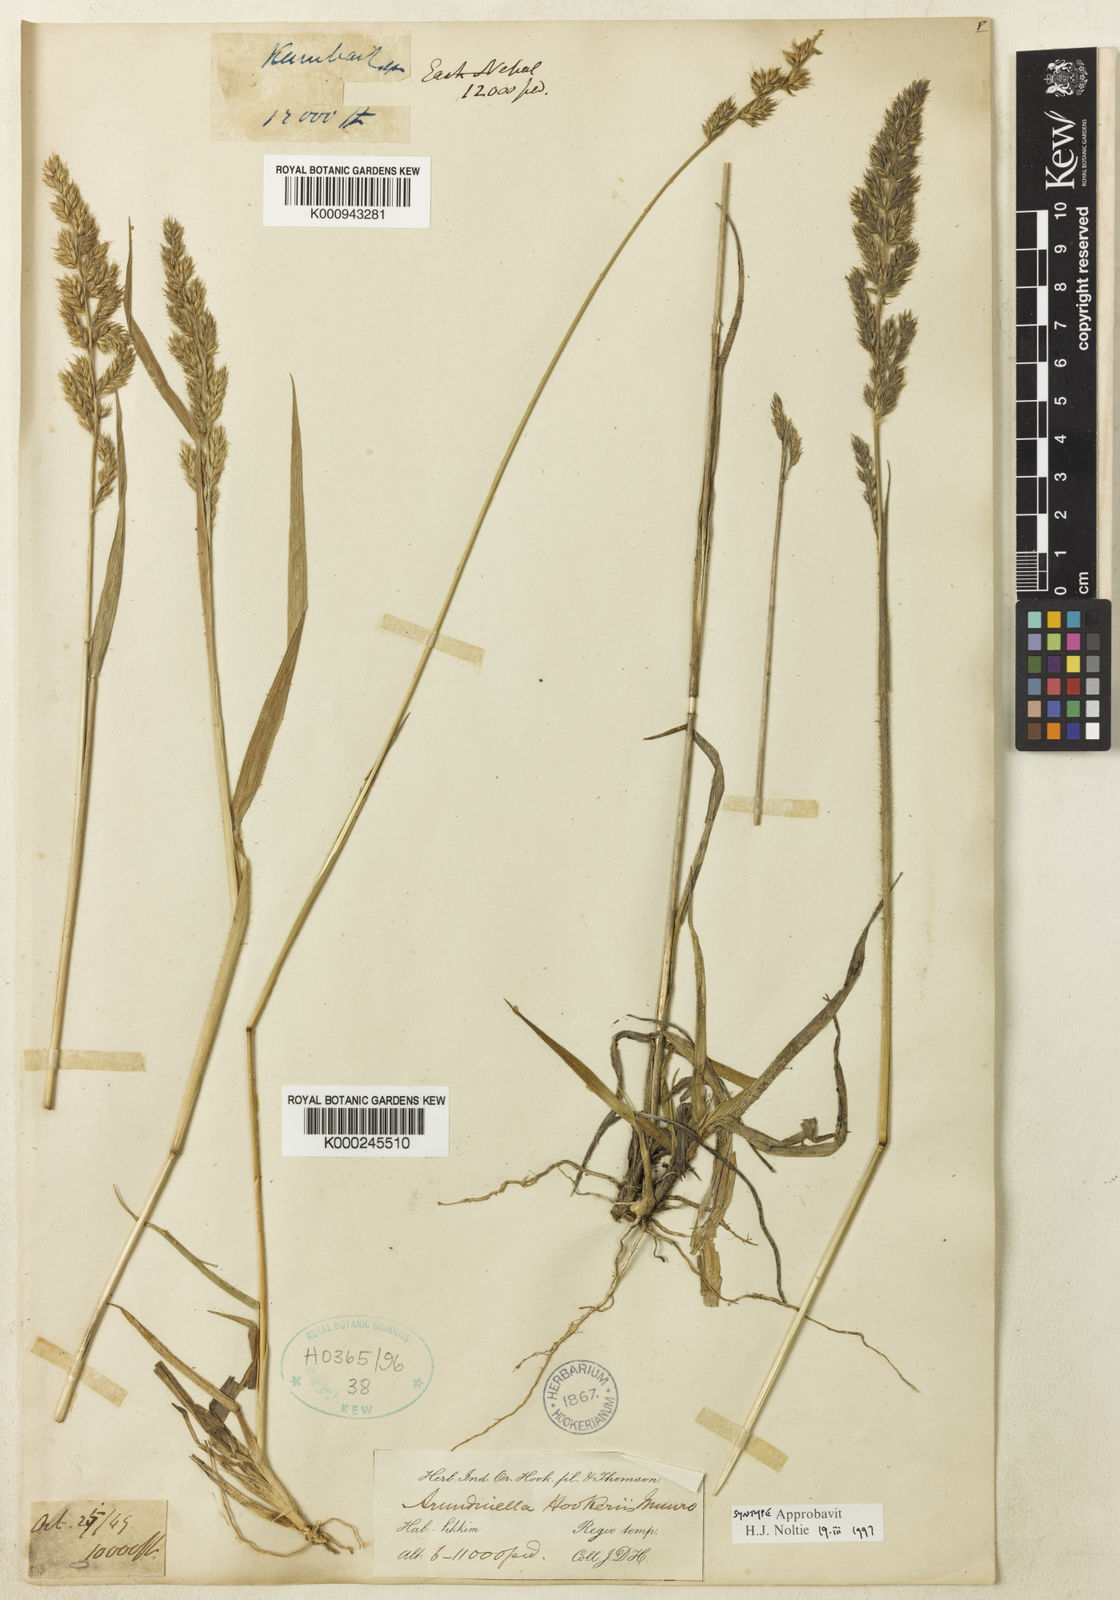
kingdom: Plantae
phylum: Tracheophyta
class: Liliopsida
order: Poales
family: Poaceae
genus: Arundinella
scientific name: Arundinella hookeri
